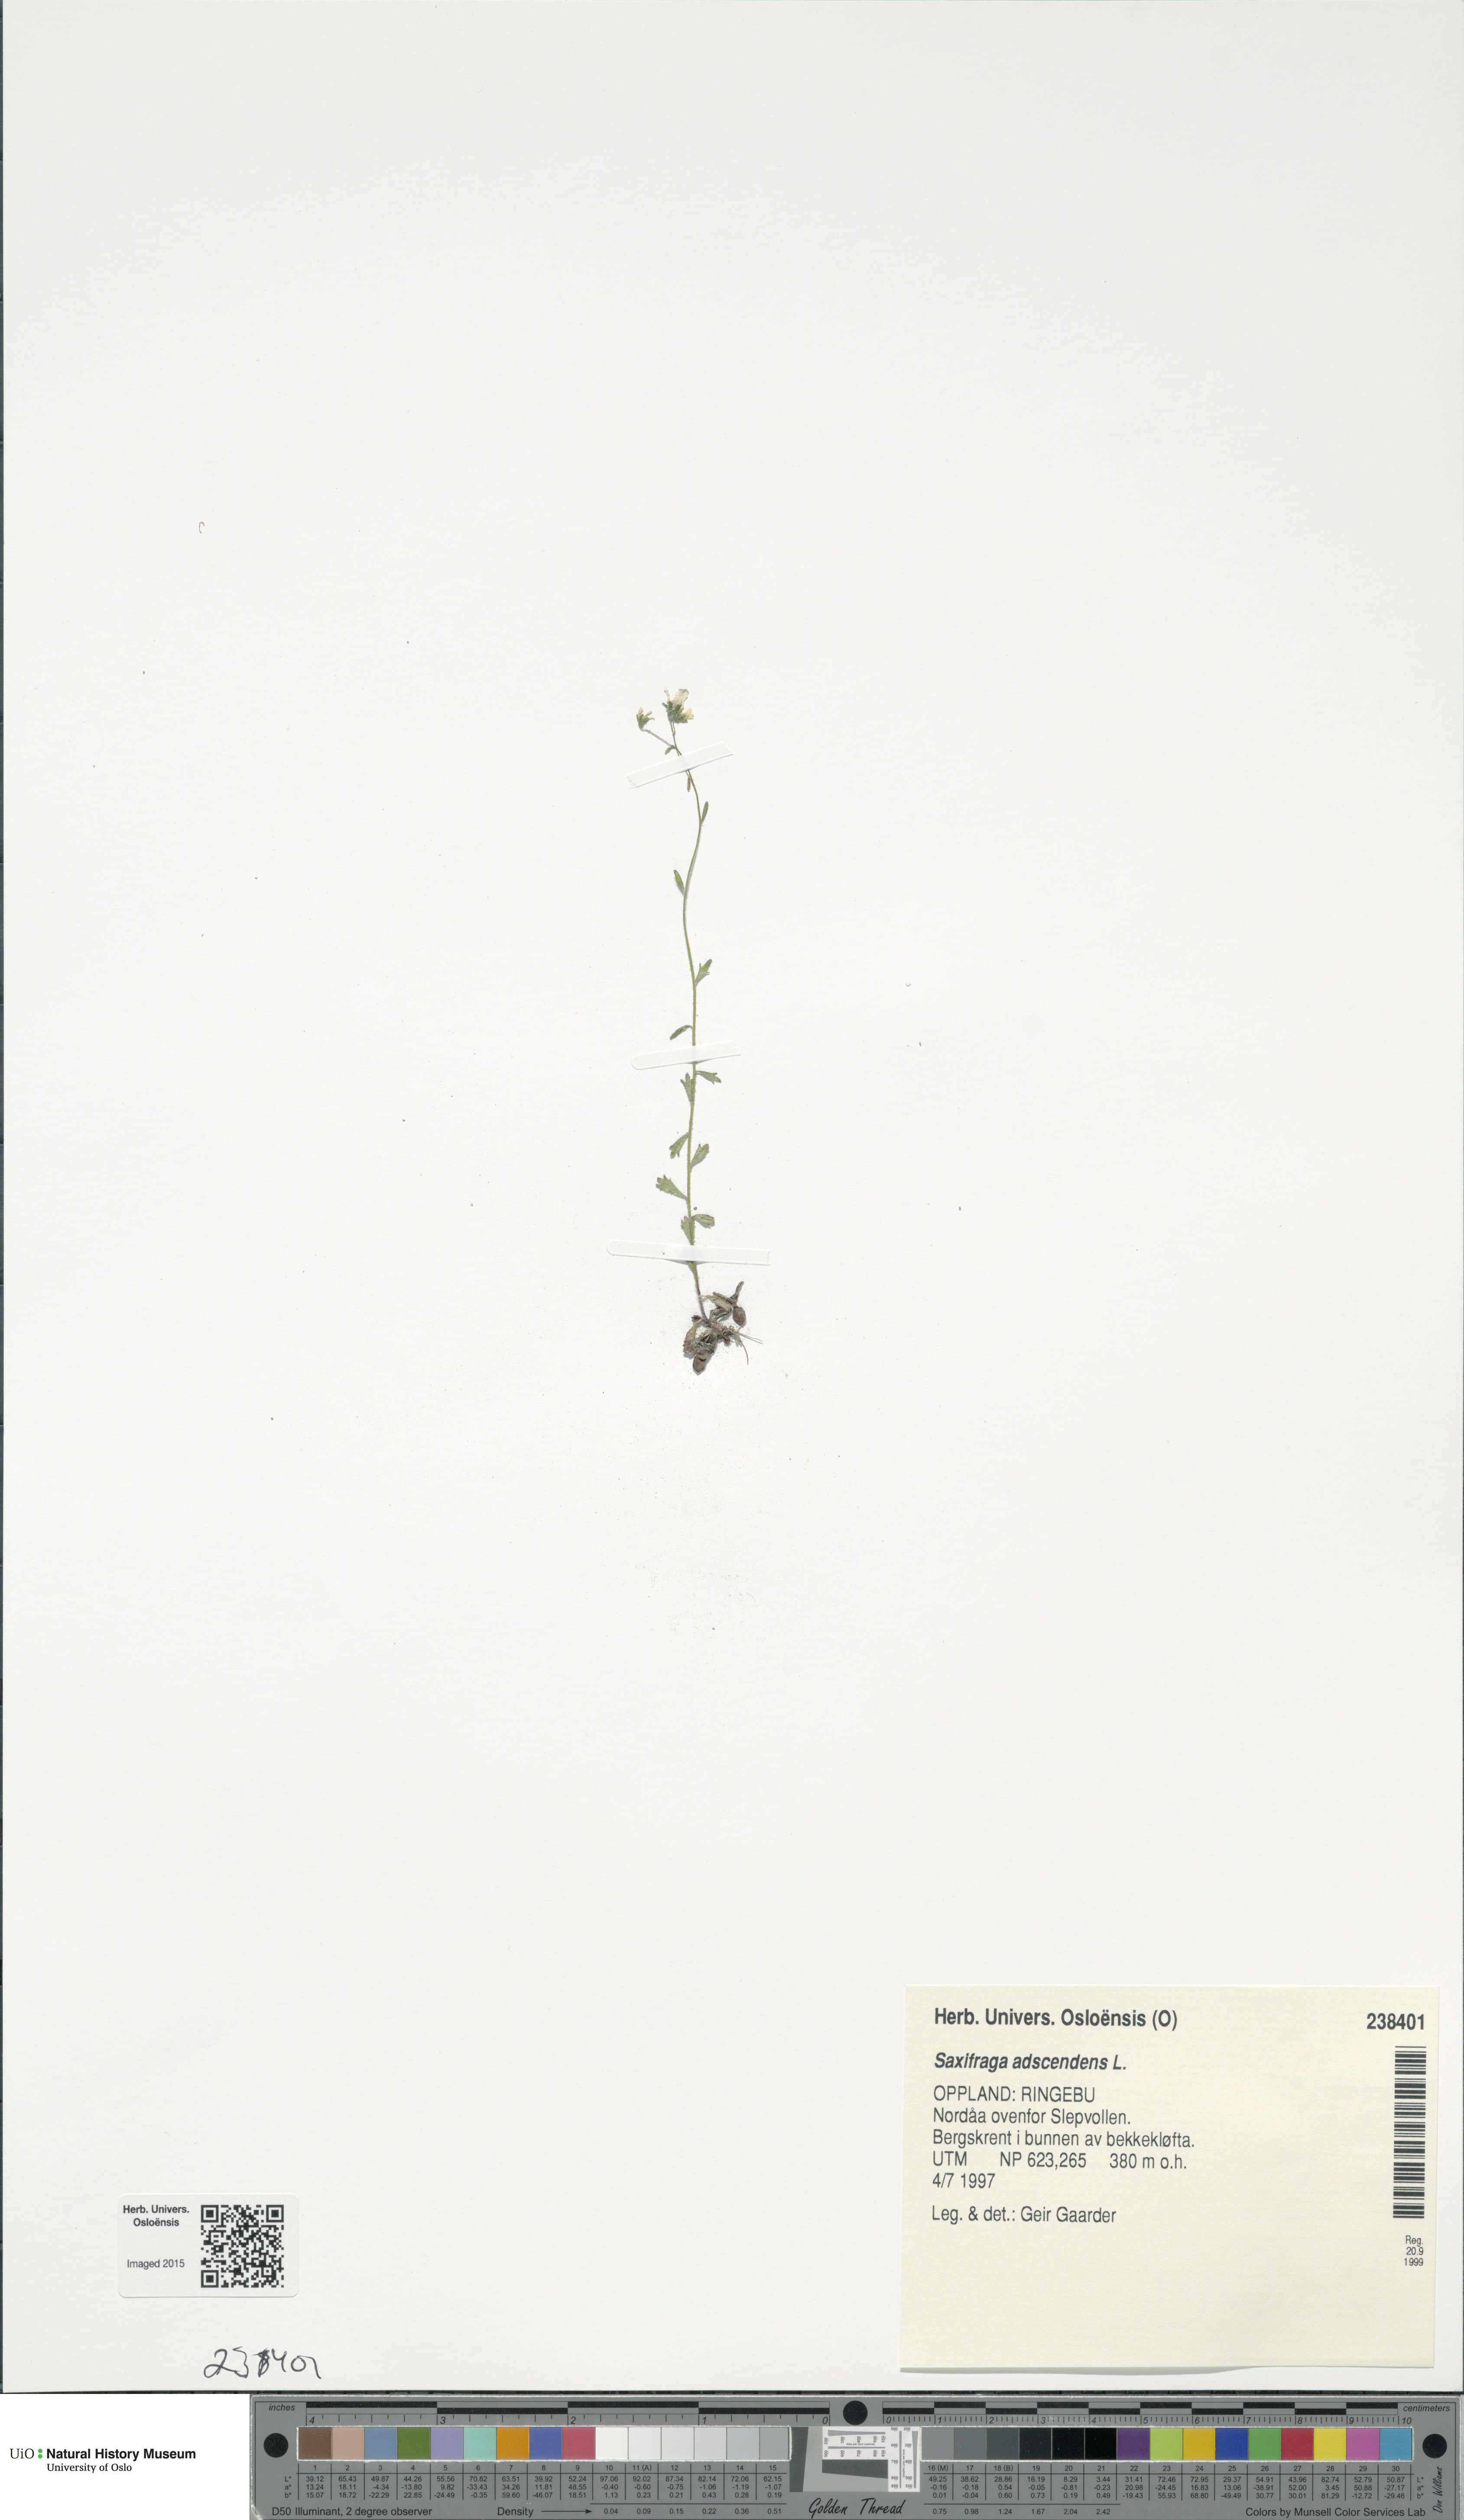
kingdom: Plantae
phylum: Tracheophyta
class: Magnoliopsida
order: Saxifragales
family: Saxifragaceae
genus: Saxifraga
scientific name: Saxifraga adscendens
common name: Ascending saxifrage
